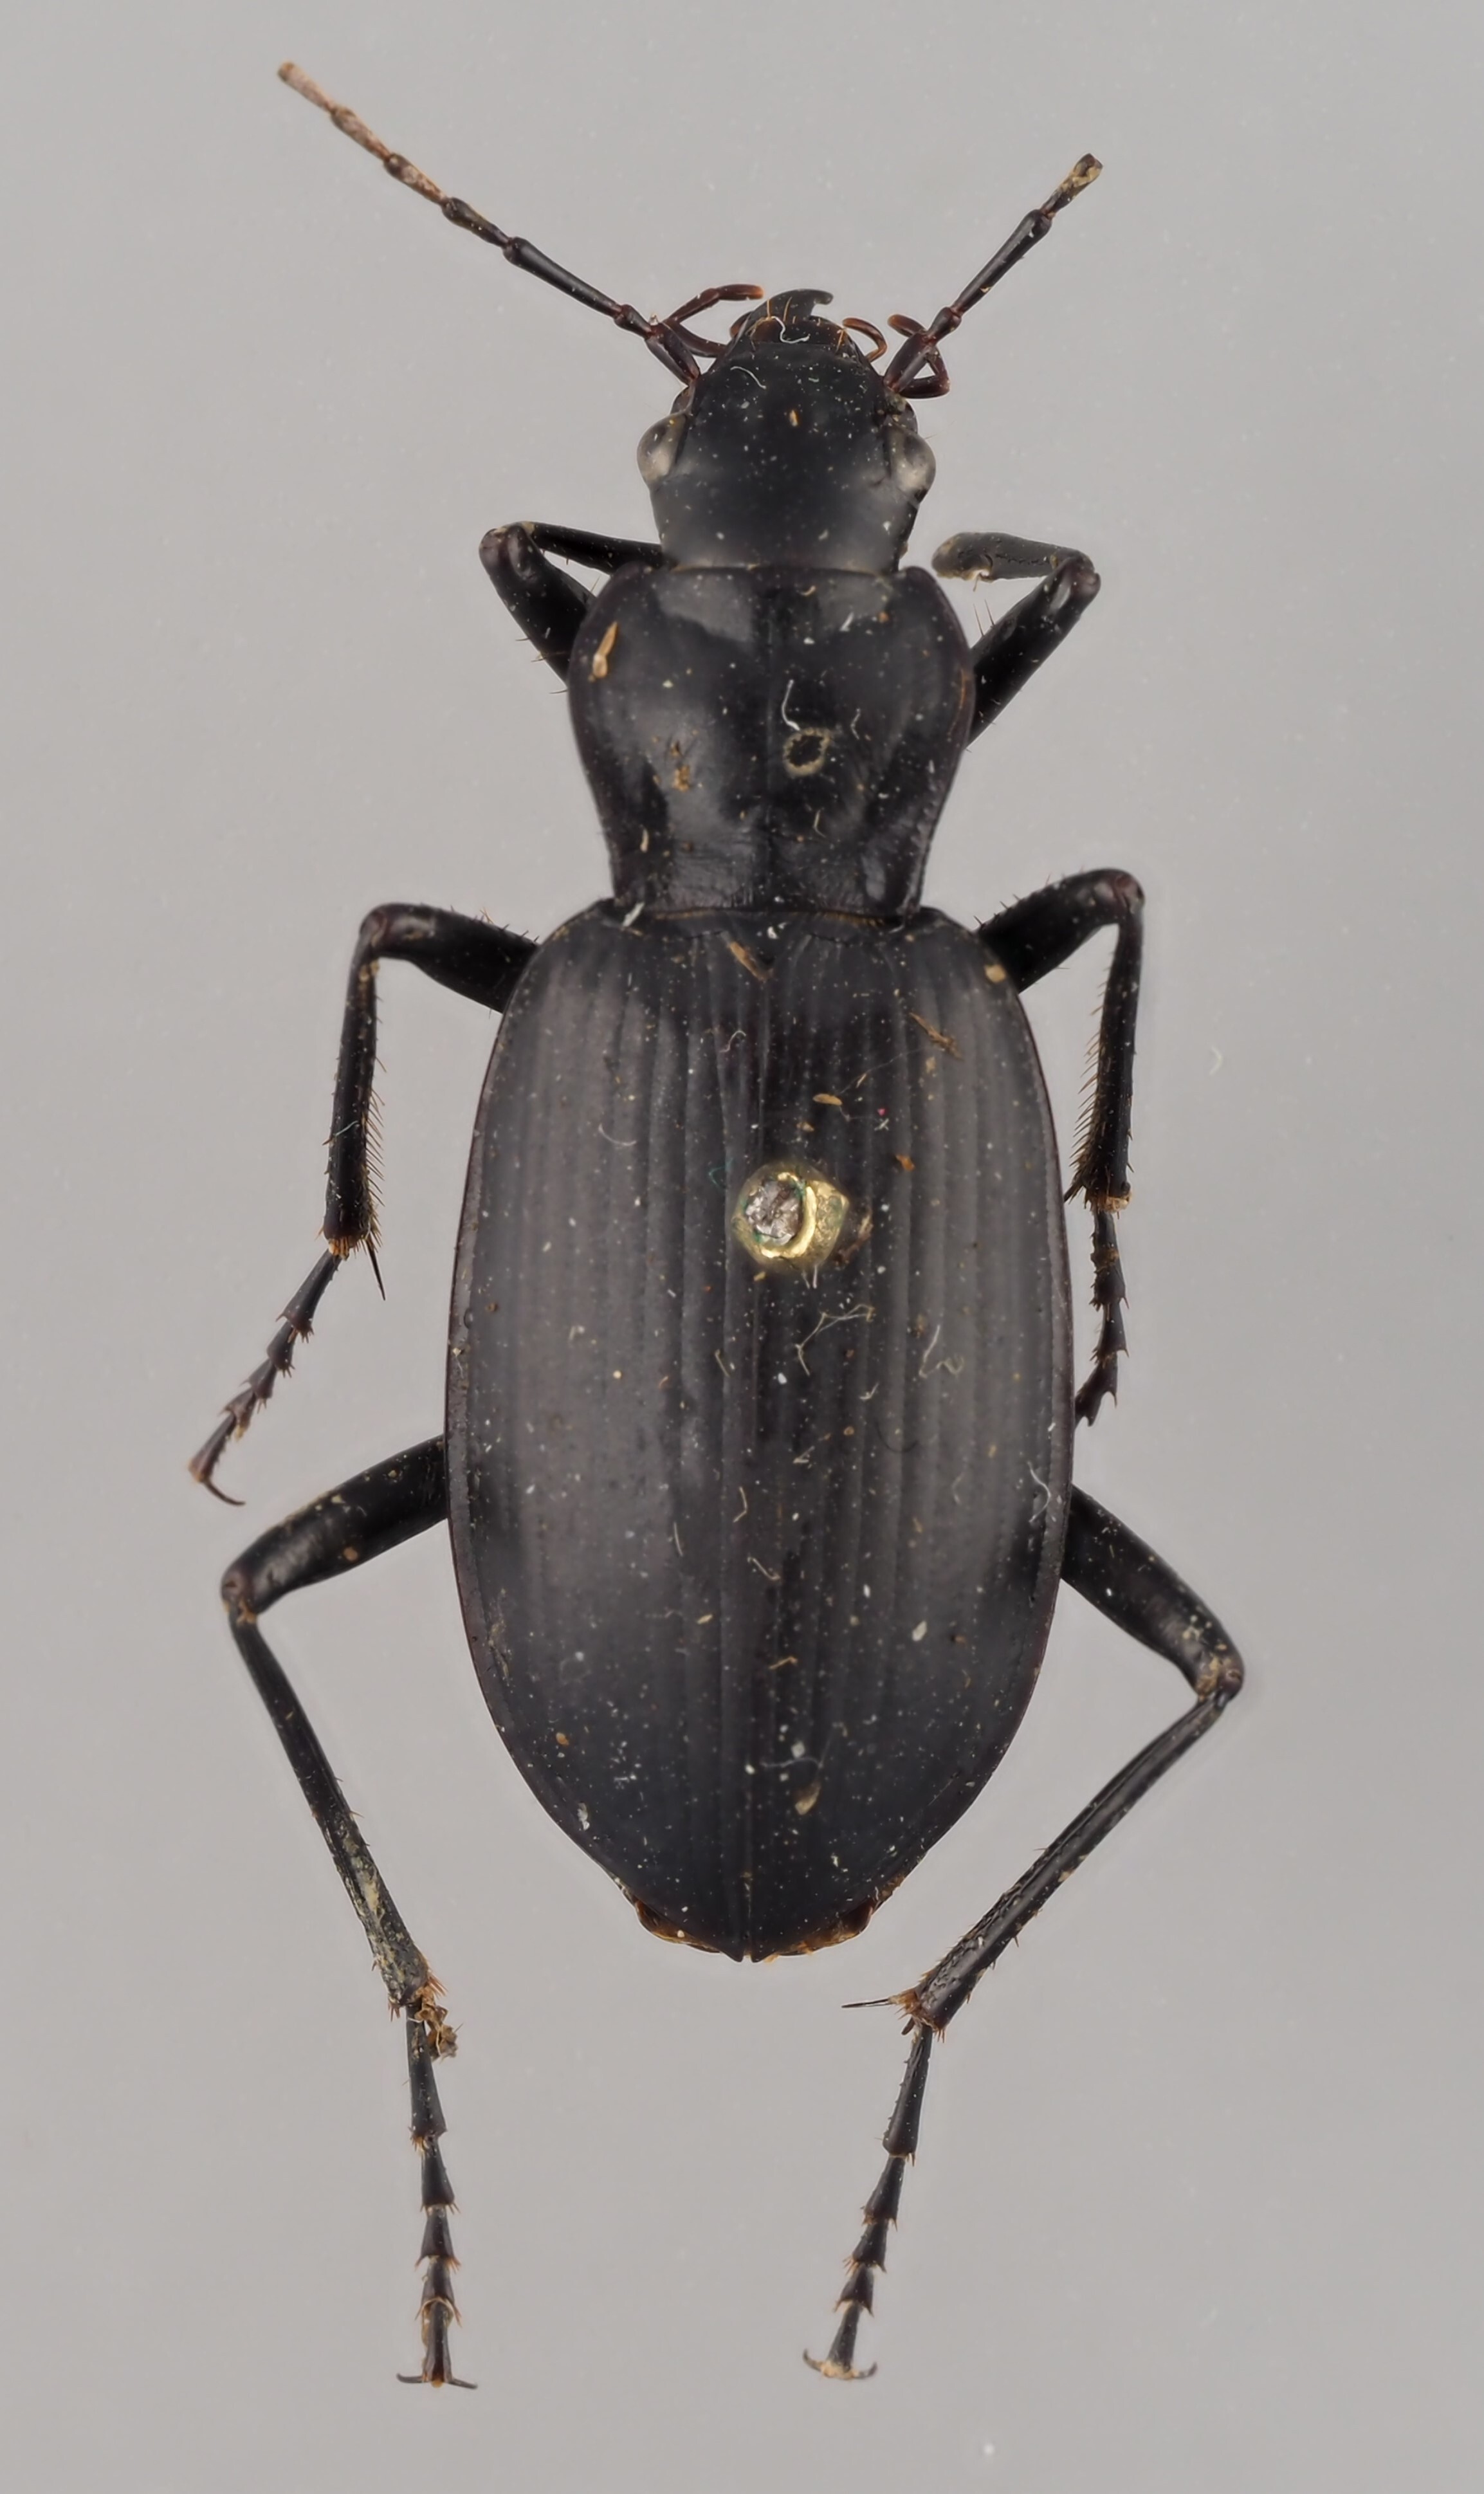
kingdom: Animalia
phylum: Arthropoda
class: Insecta
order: Coleoptera
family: Carabidae
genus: Sphodrus
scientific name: Sphodrus leucophthalmus
